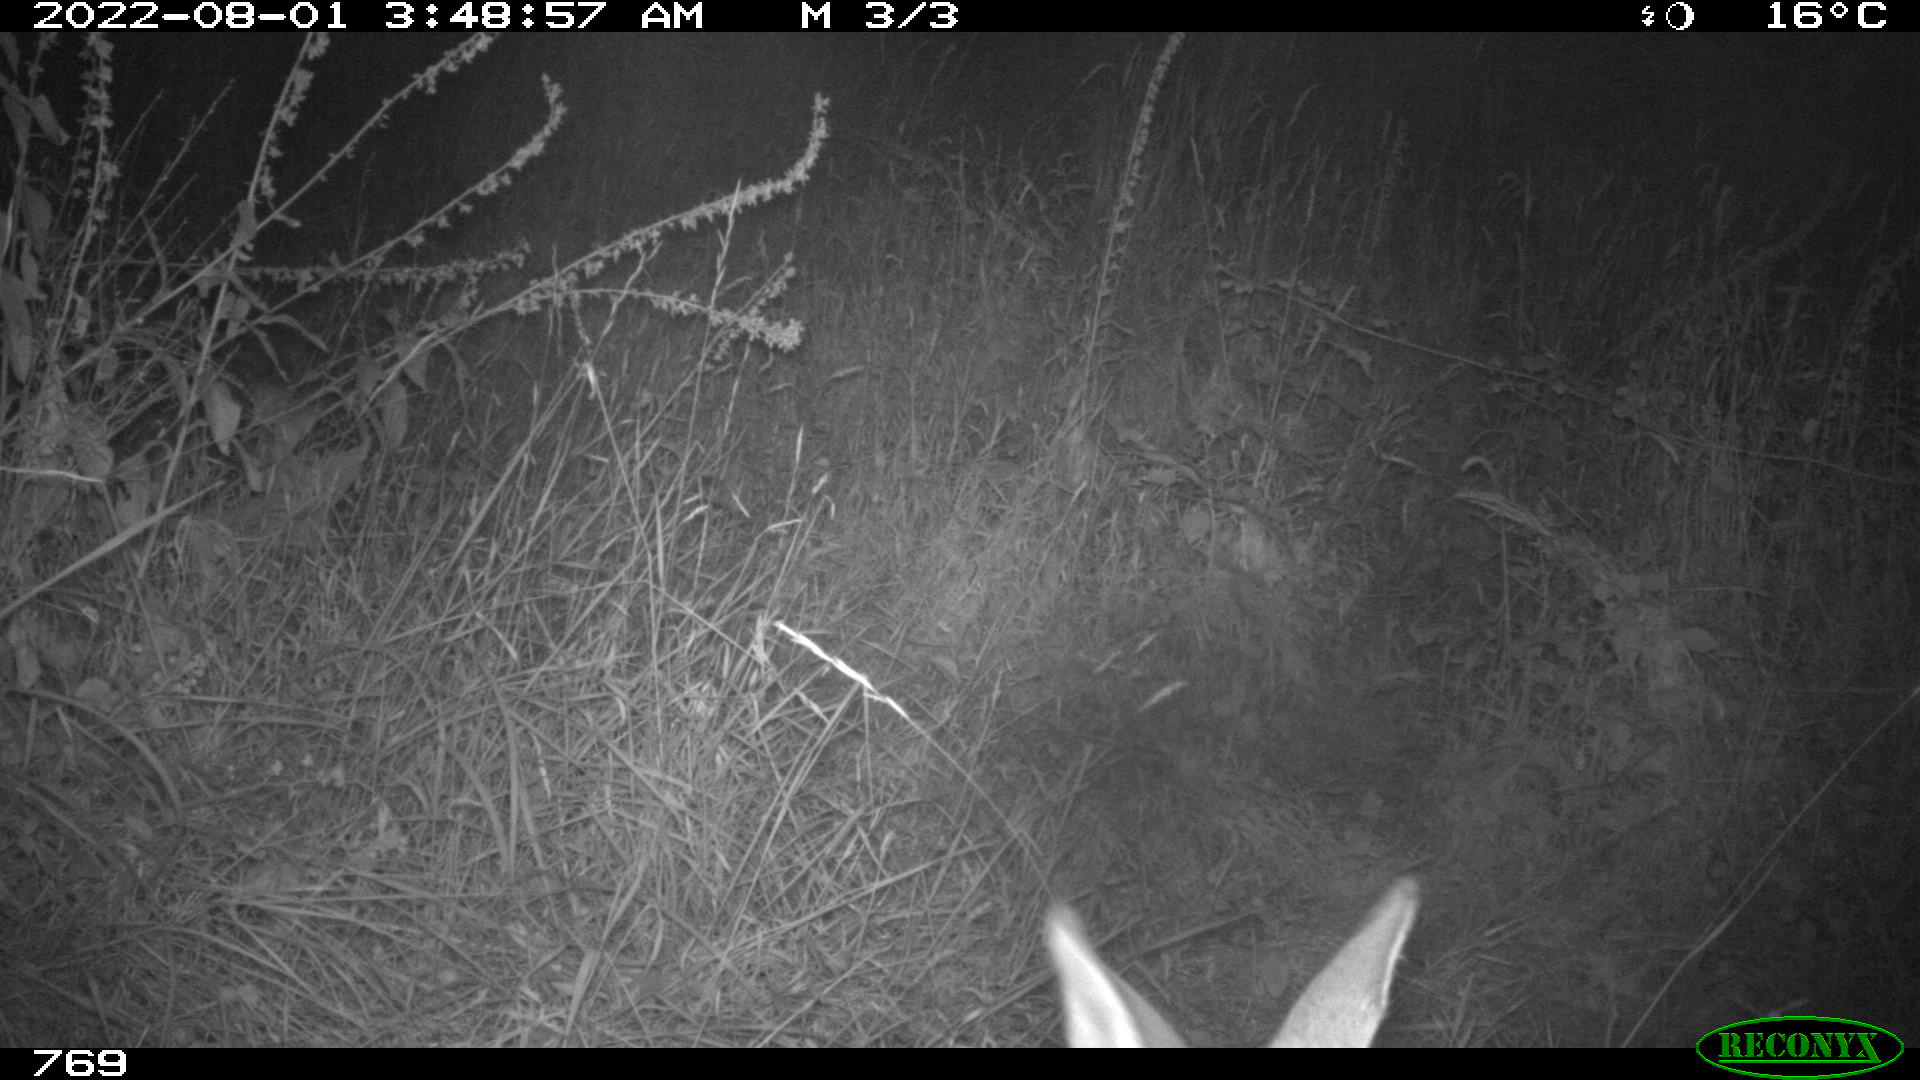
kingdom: Animalia
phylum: Chordata
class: Mammalia
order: Artiodactyla
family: Cervidae
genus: Capreolus
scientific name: Capreolus capreolus
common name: Western roe deer
